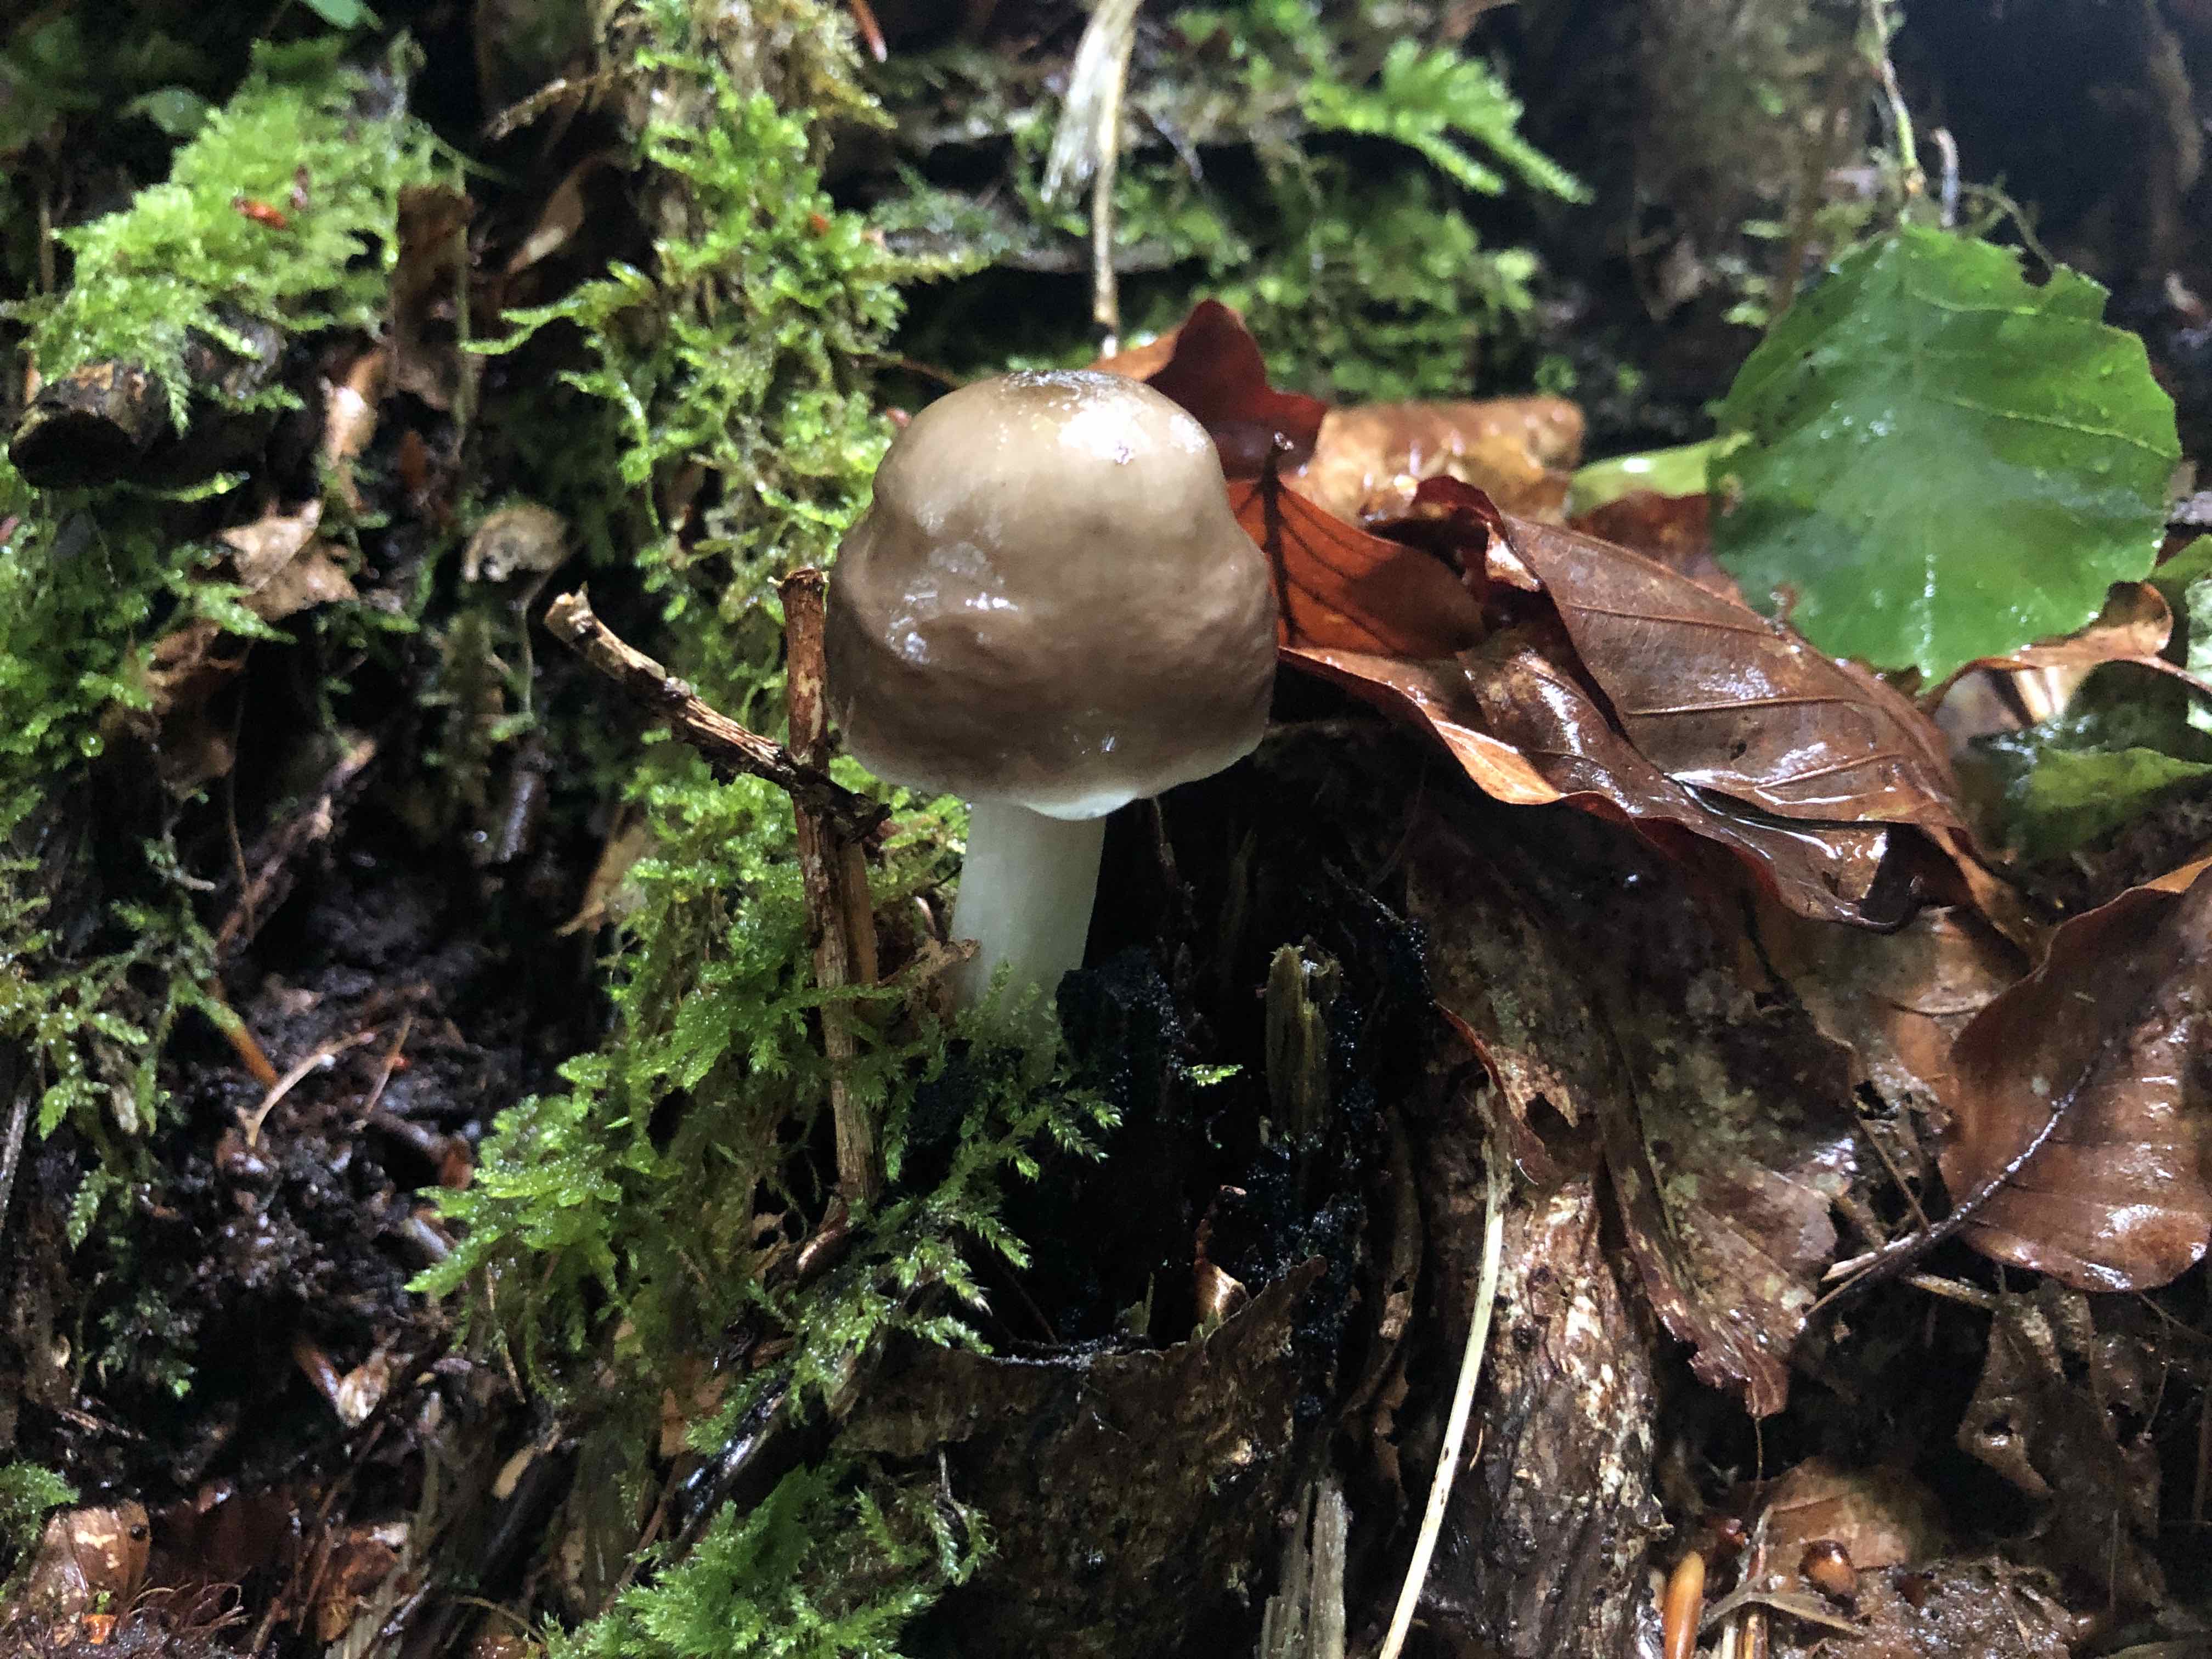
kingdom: Fungi
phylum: Basidiomycota
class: Agaricomycetes
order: Agaricales
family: Pluteaceae
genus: Pluteus
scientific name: Pluteus cervinus
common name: sodfarvet skærmhat
